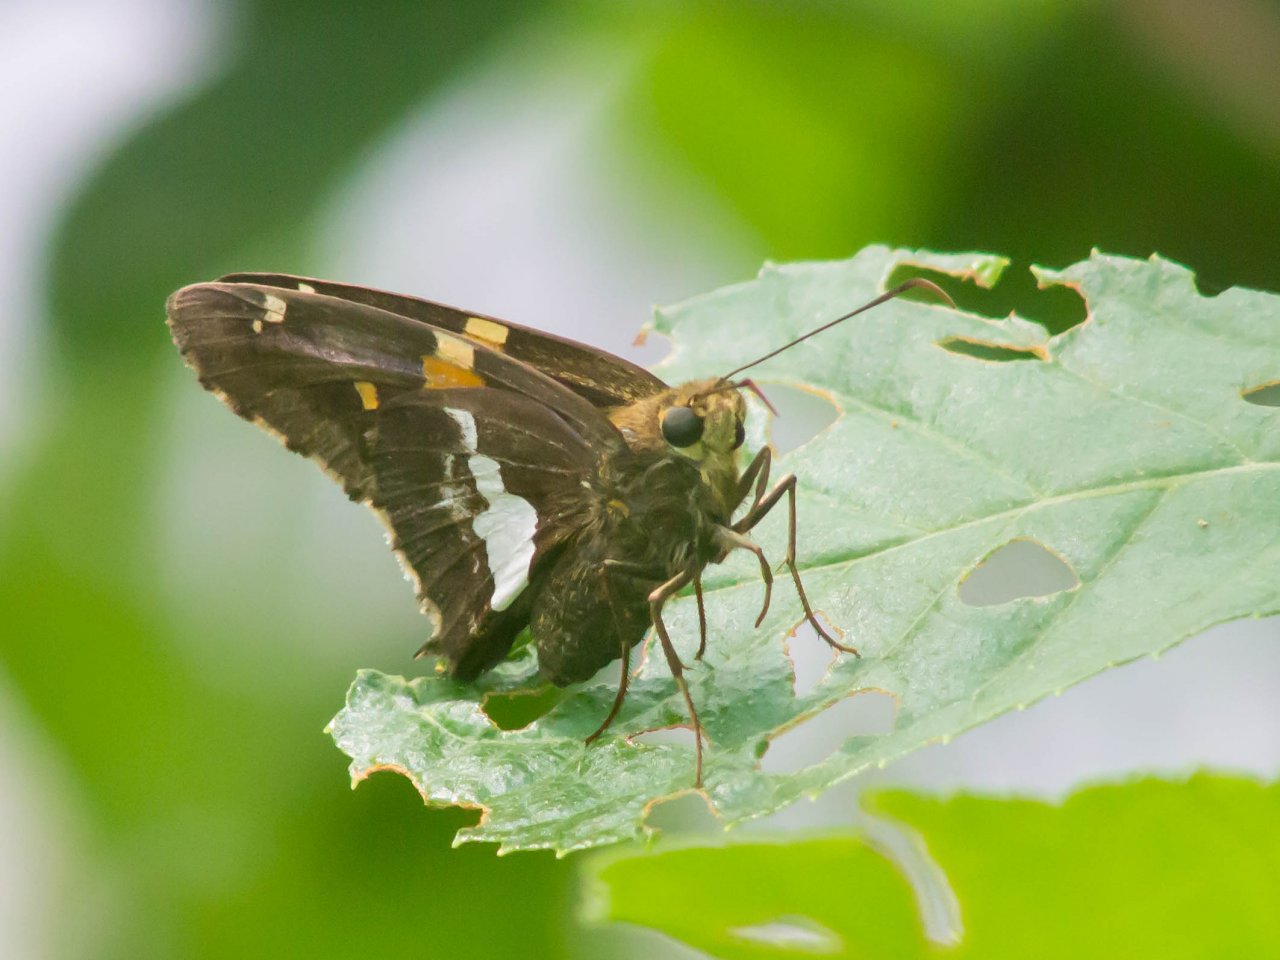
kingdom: Animalia
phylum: Arthropoda
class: Insecta
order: Lepidoptera
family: Hesperiidae
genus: Epargyreus
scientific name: Epargyreus clarus
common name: Silver-spotted Skipper
